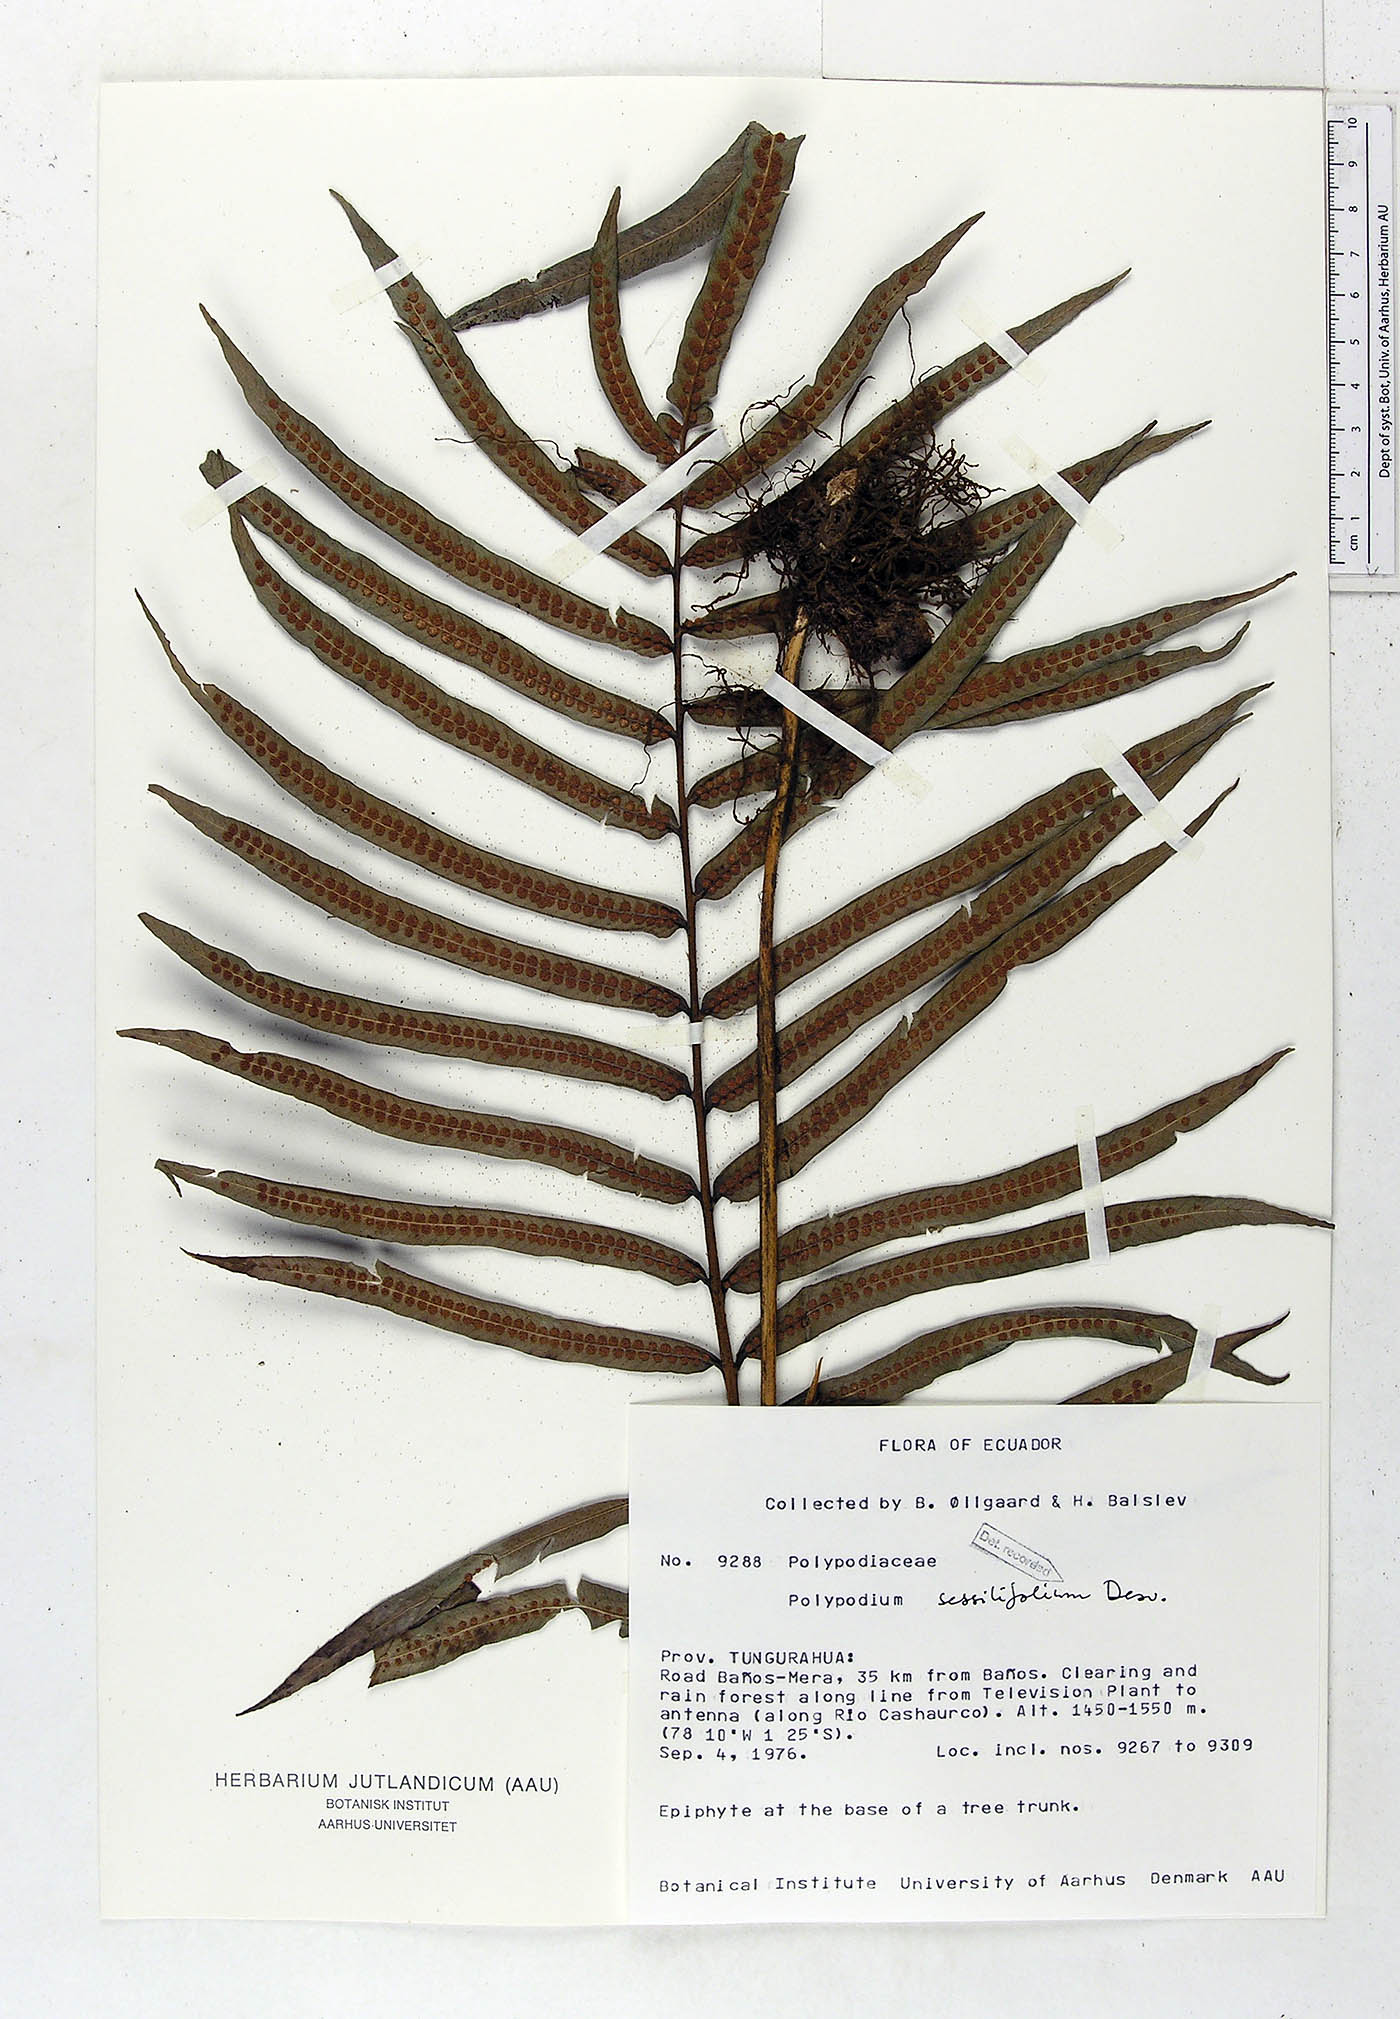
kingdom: Plantae
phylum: Tracheophyta
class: Polypodiopsida
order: Polypodiales
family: Polypodiaceae
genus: Serpocaulon
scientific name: Serpocaulon sessilifolium
